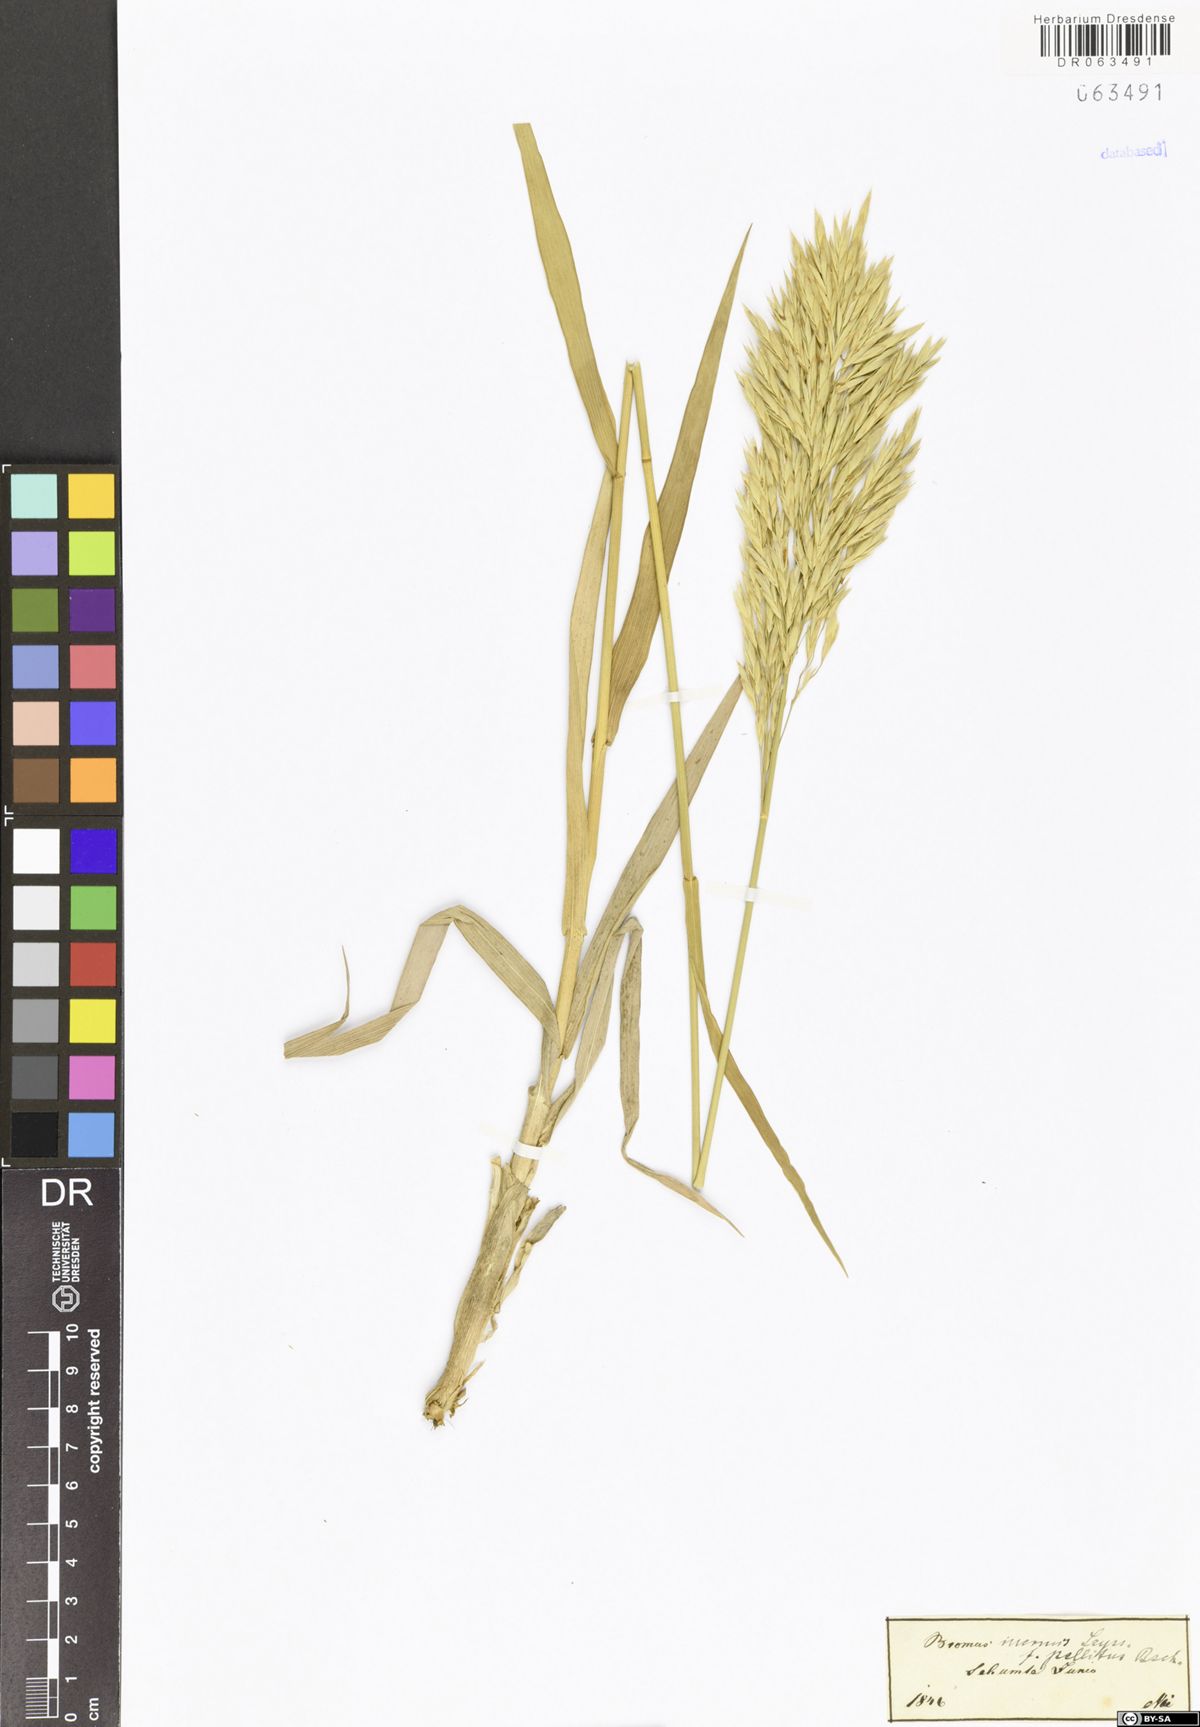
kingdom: Plantae
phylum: Tracheophyta
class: Liliopsida
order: Poales
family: Poaceae
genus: Bromus
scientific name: Bromus inermis
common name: Smooth brome
